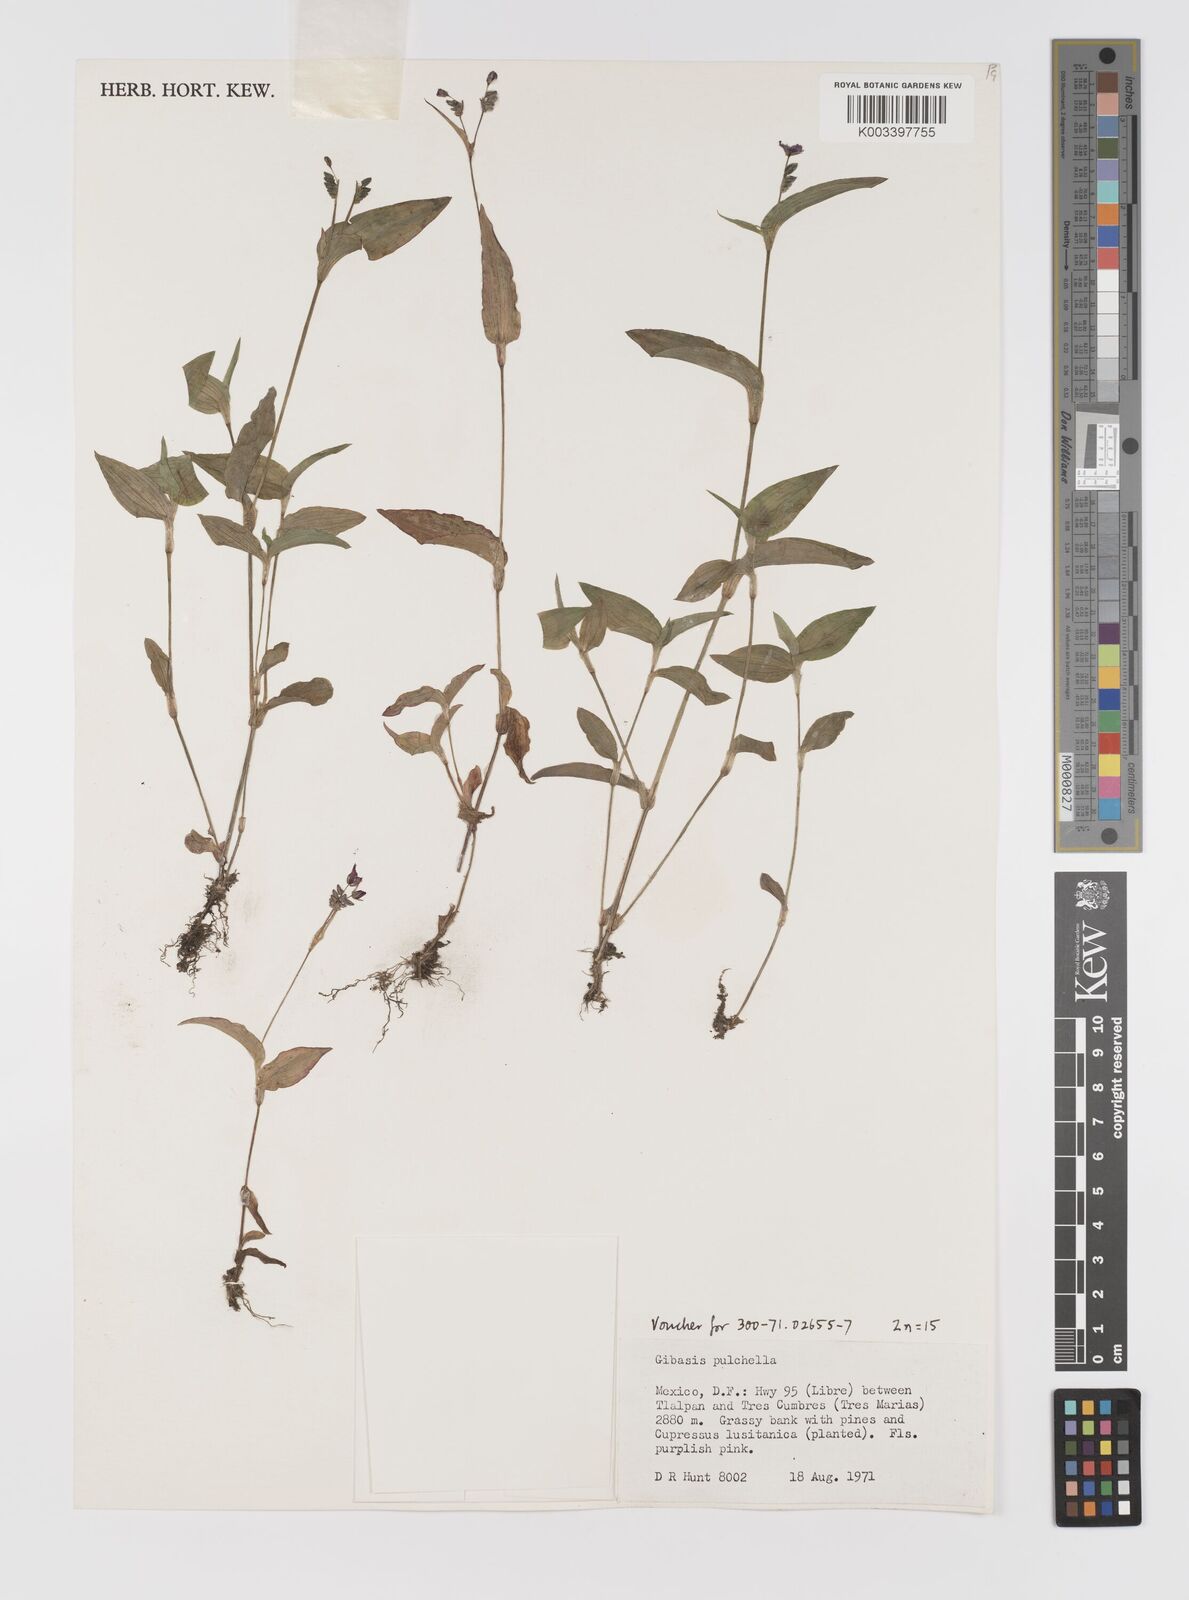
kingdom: Plantae
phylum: Tracheophyta
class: Liliopsida
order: Commelinales
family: Commelinaceae
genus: Gibasis
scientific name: Gibasis pulchella
